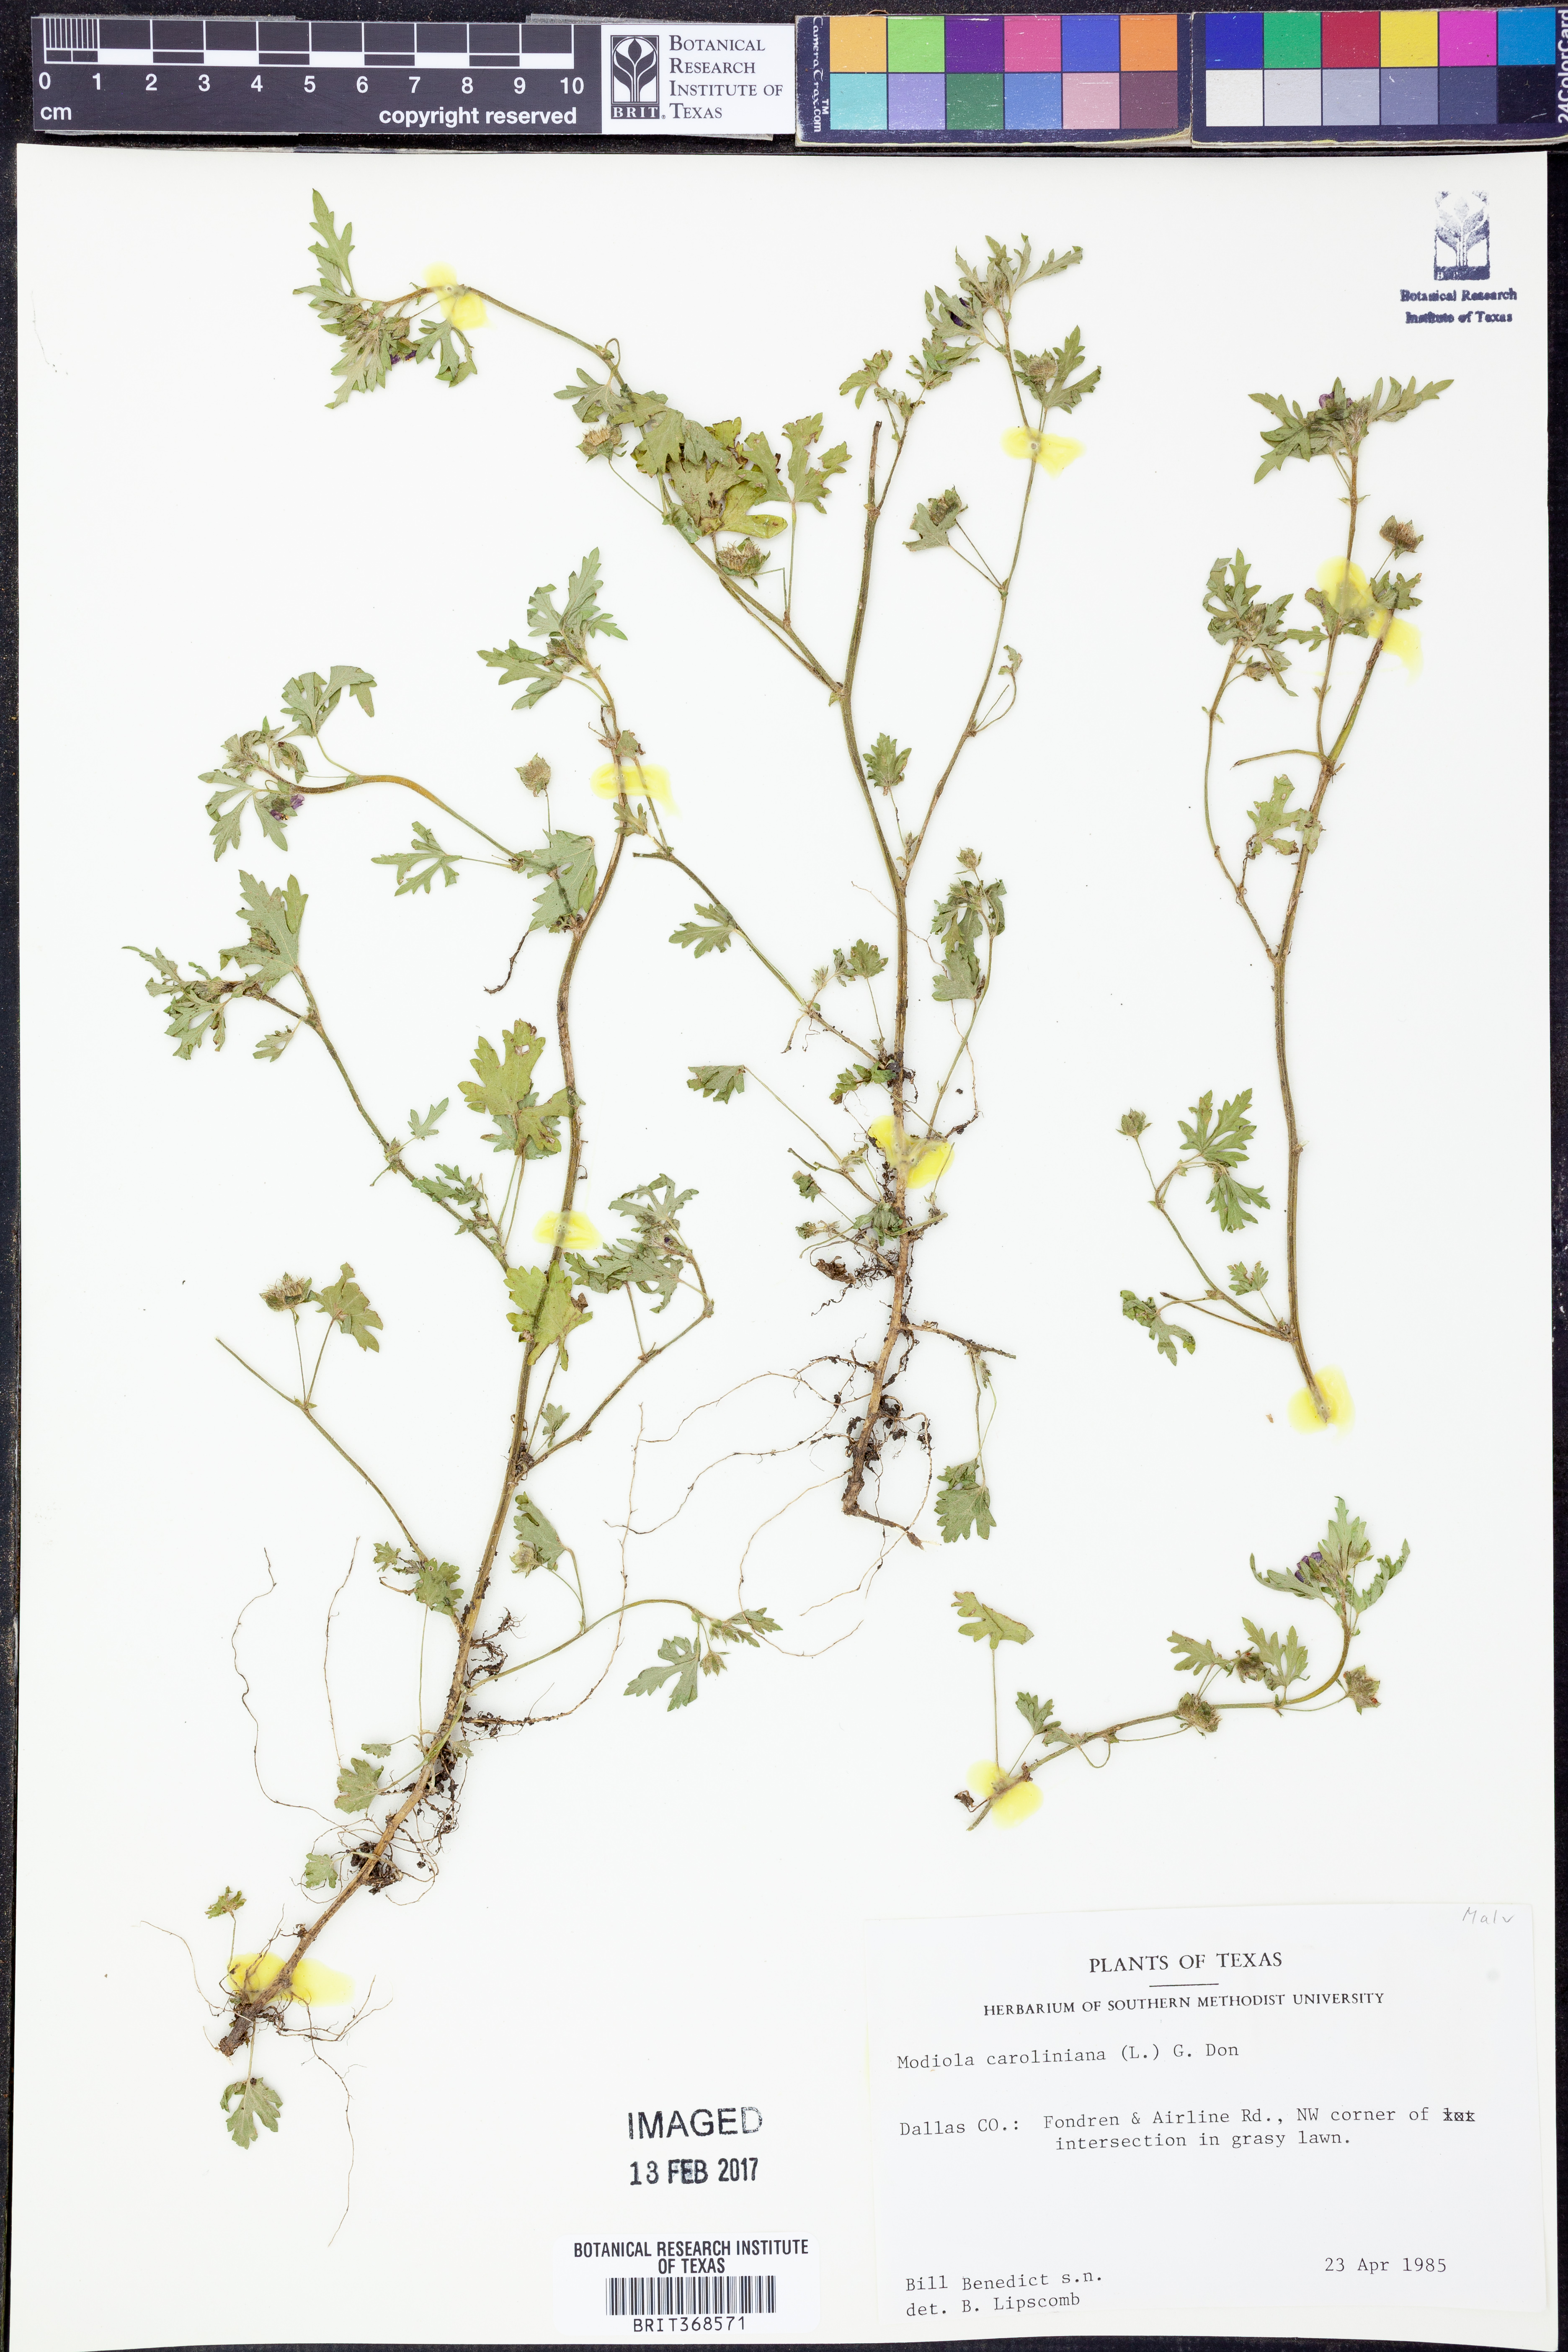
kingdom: Plantae
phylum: Tracheophyta
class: Magnoliopsida
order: Malvales
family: Malvaceae
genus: Modiola
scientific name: Modiola caroliniana
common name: Carolina bristlemallow
